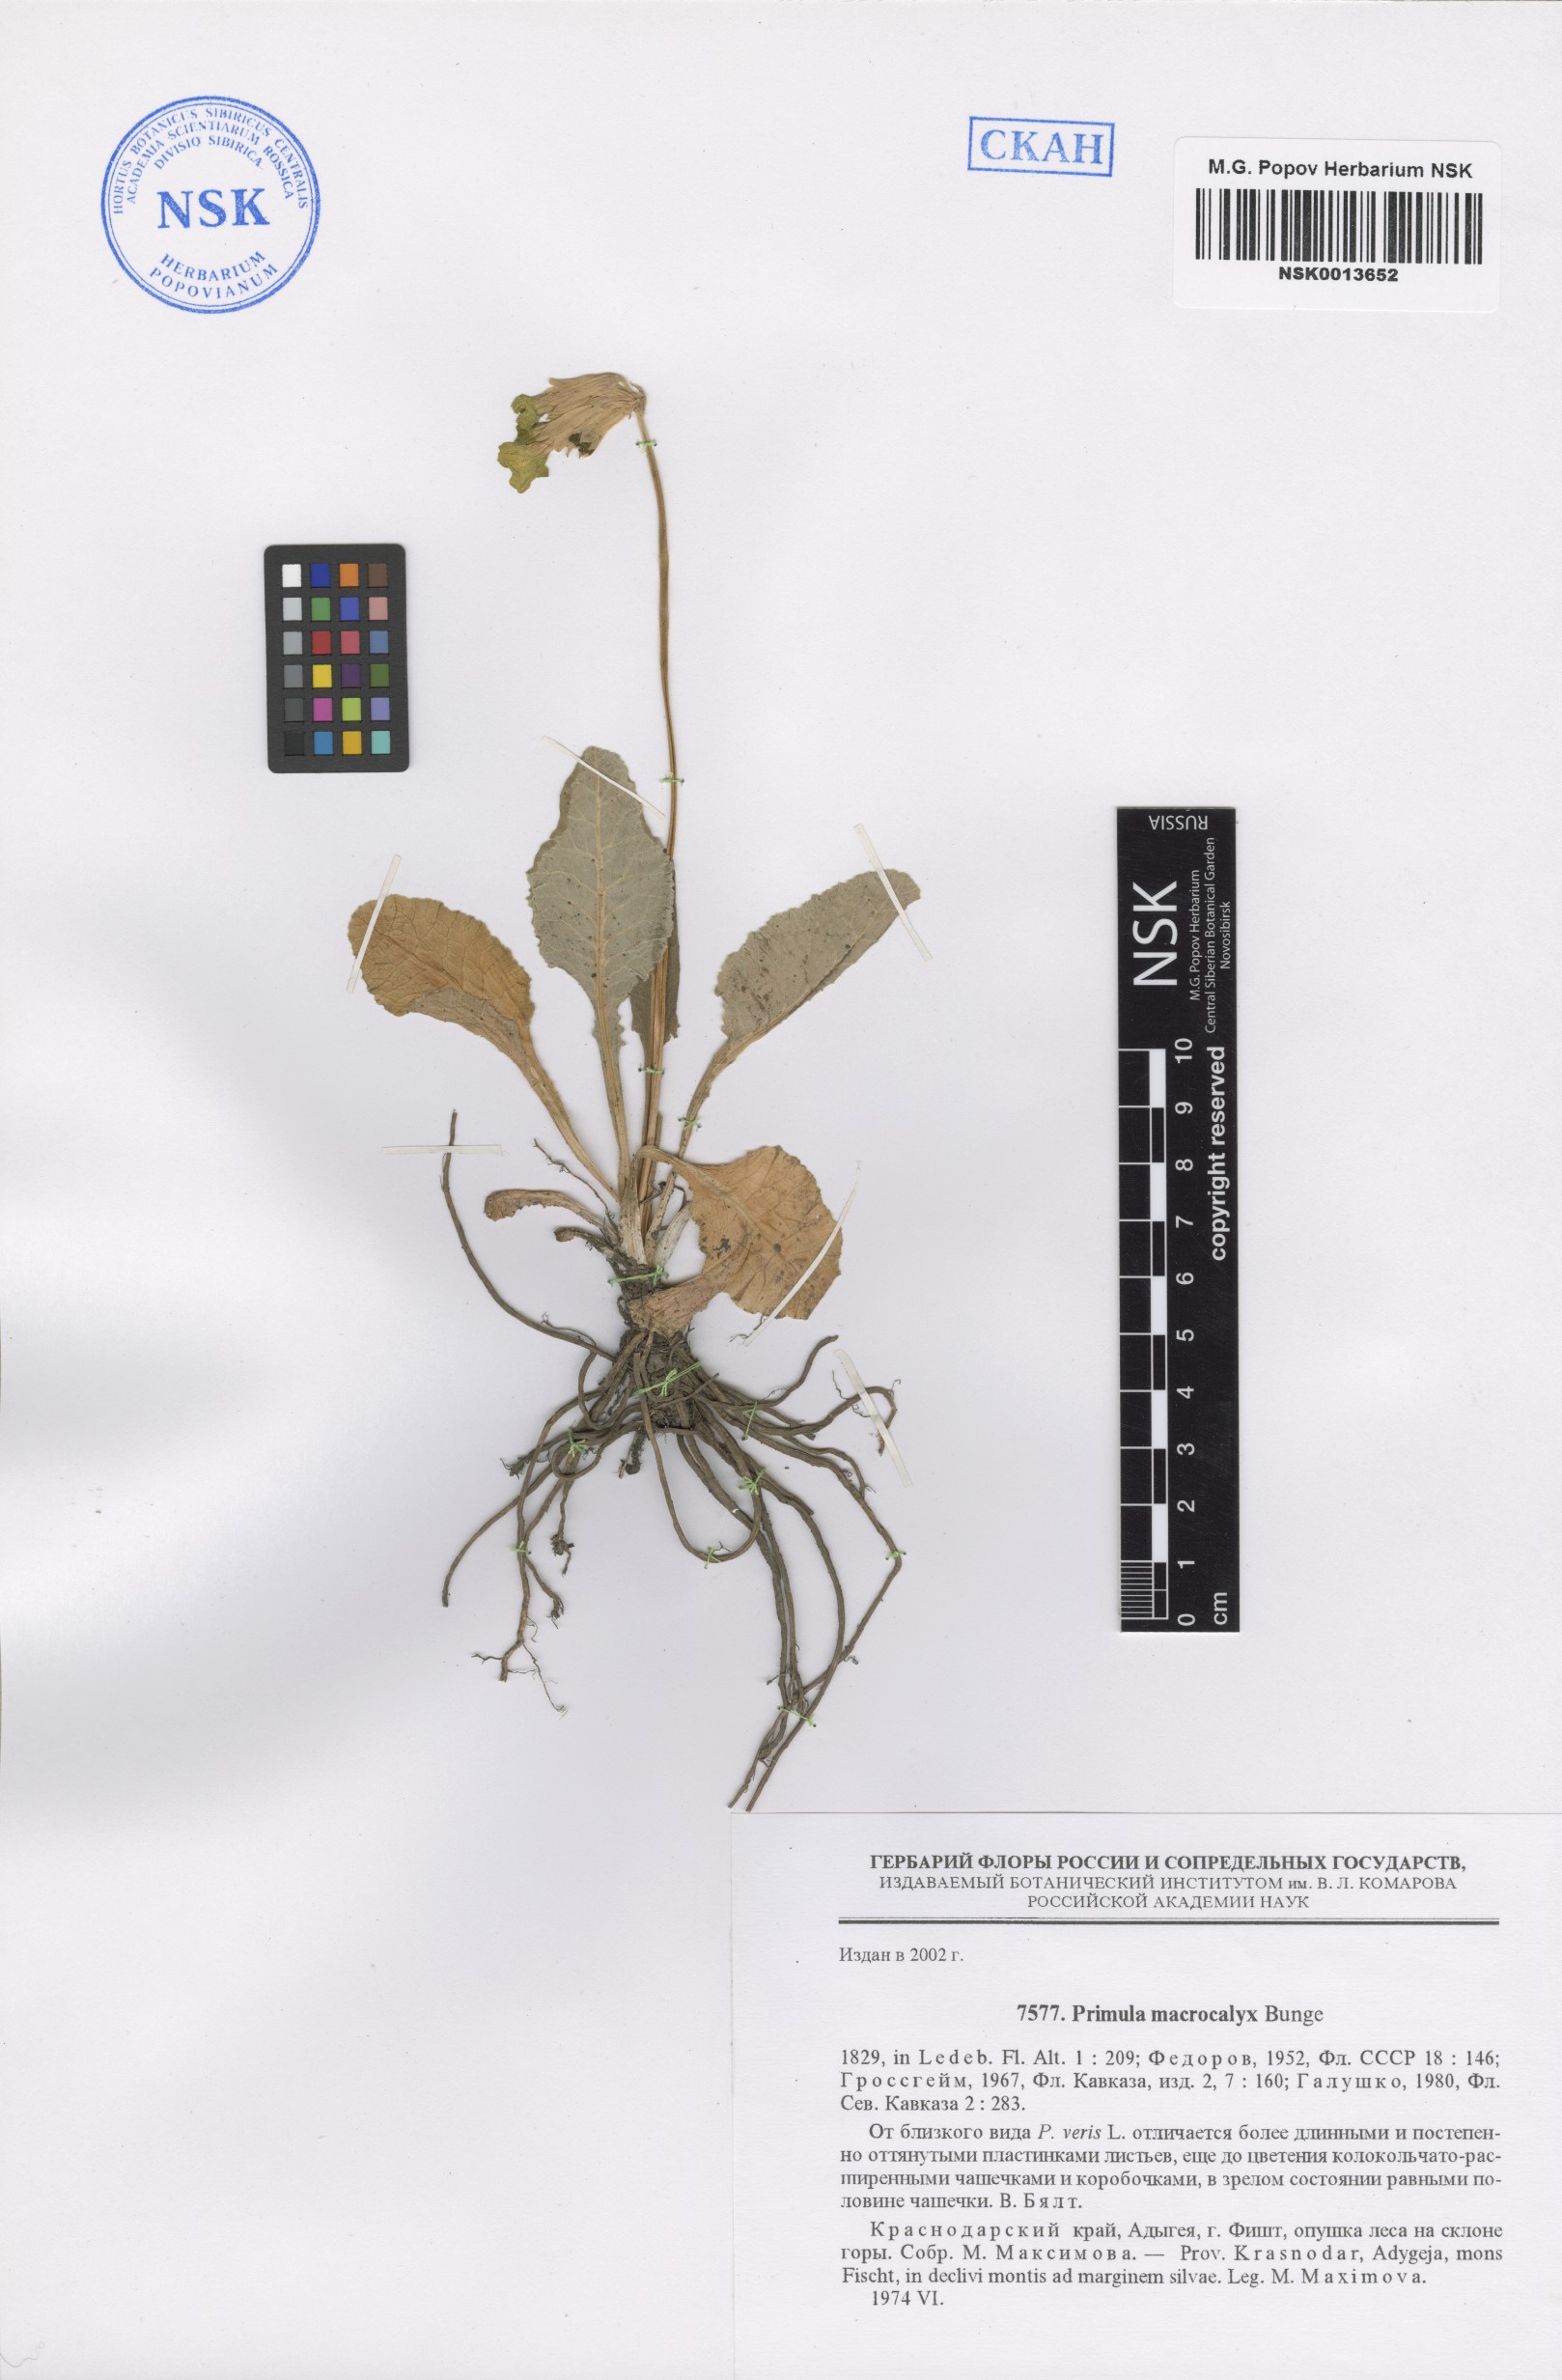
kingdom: Plantae
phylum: Tracheophyta
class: Magnoliopsida
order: Ericales
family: Primulaceae
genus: Primula
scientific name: Primula veris
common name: Cowslip
